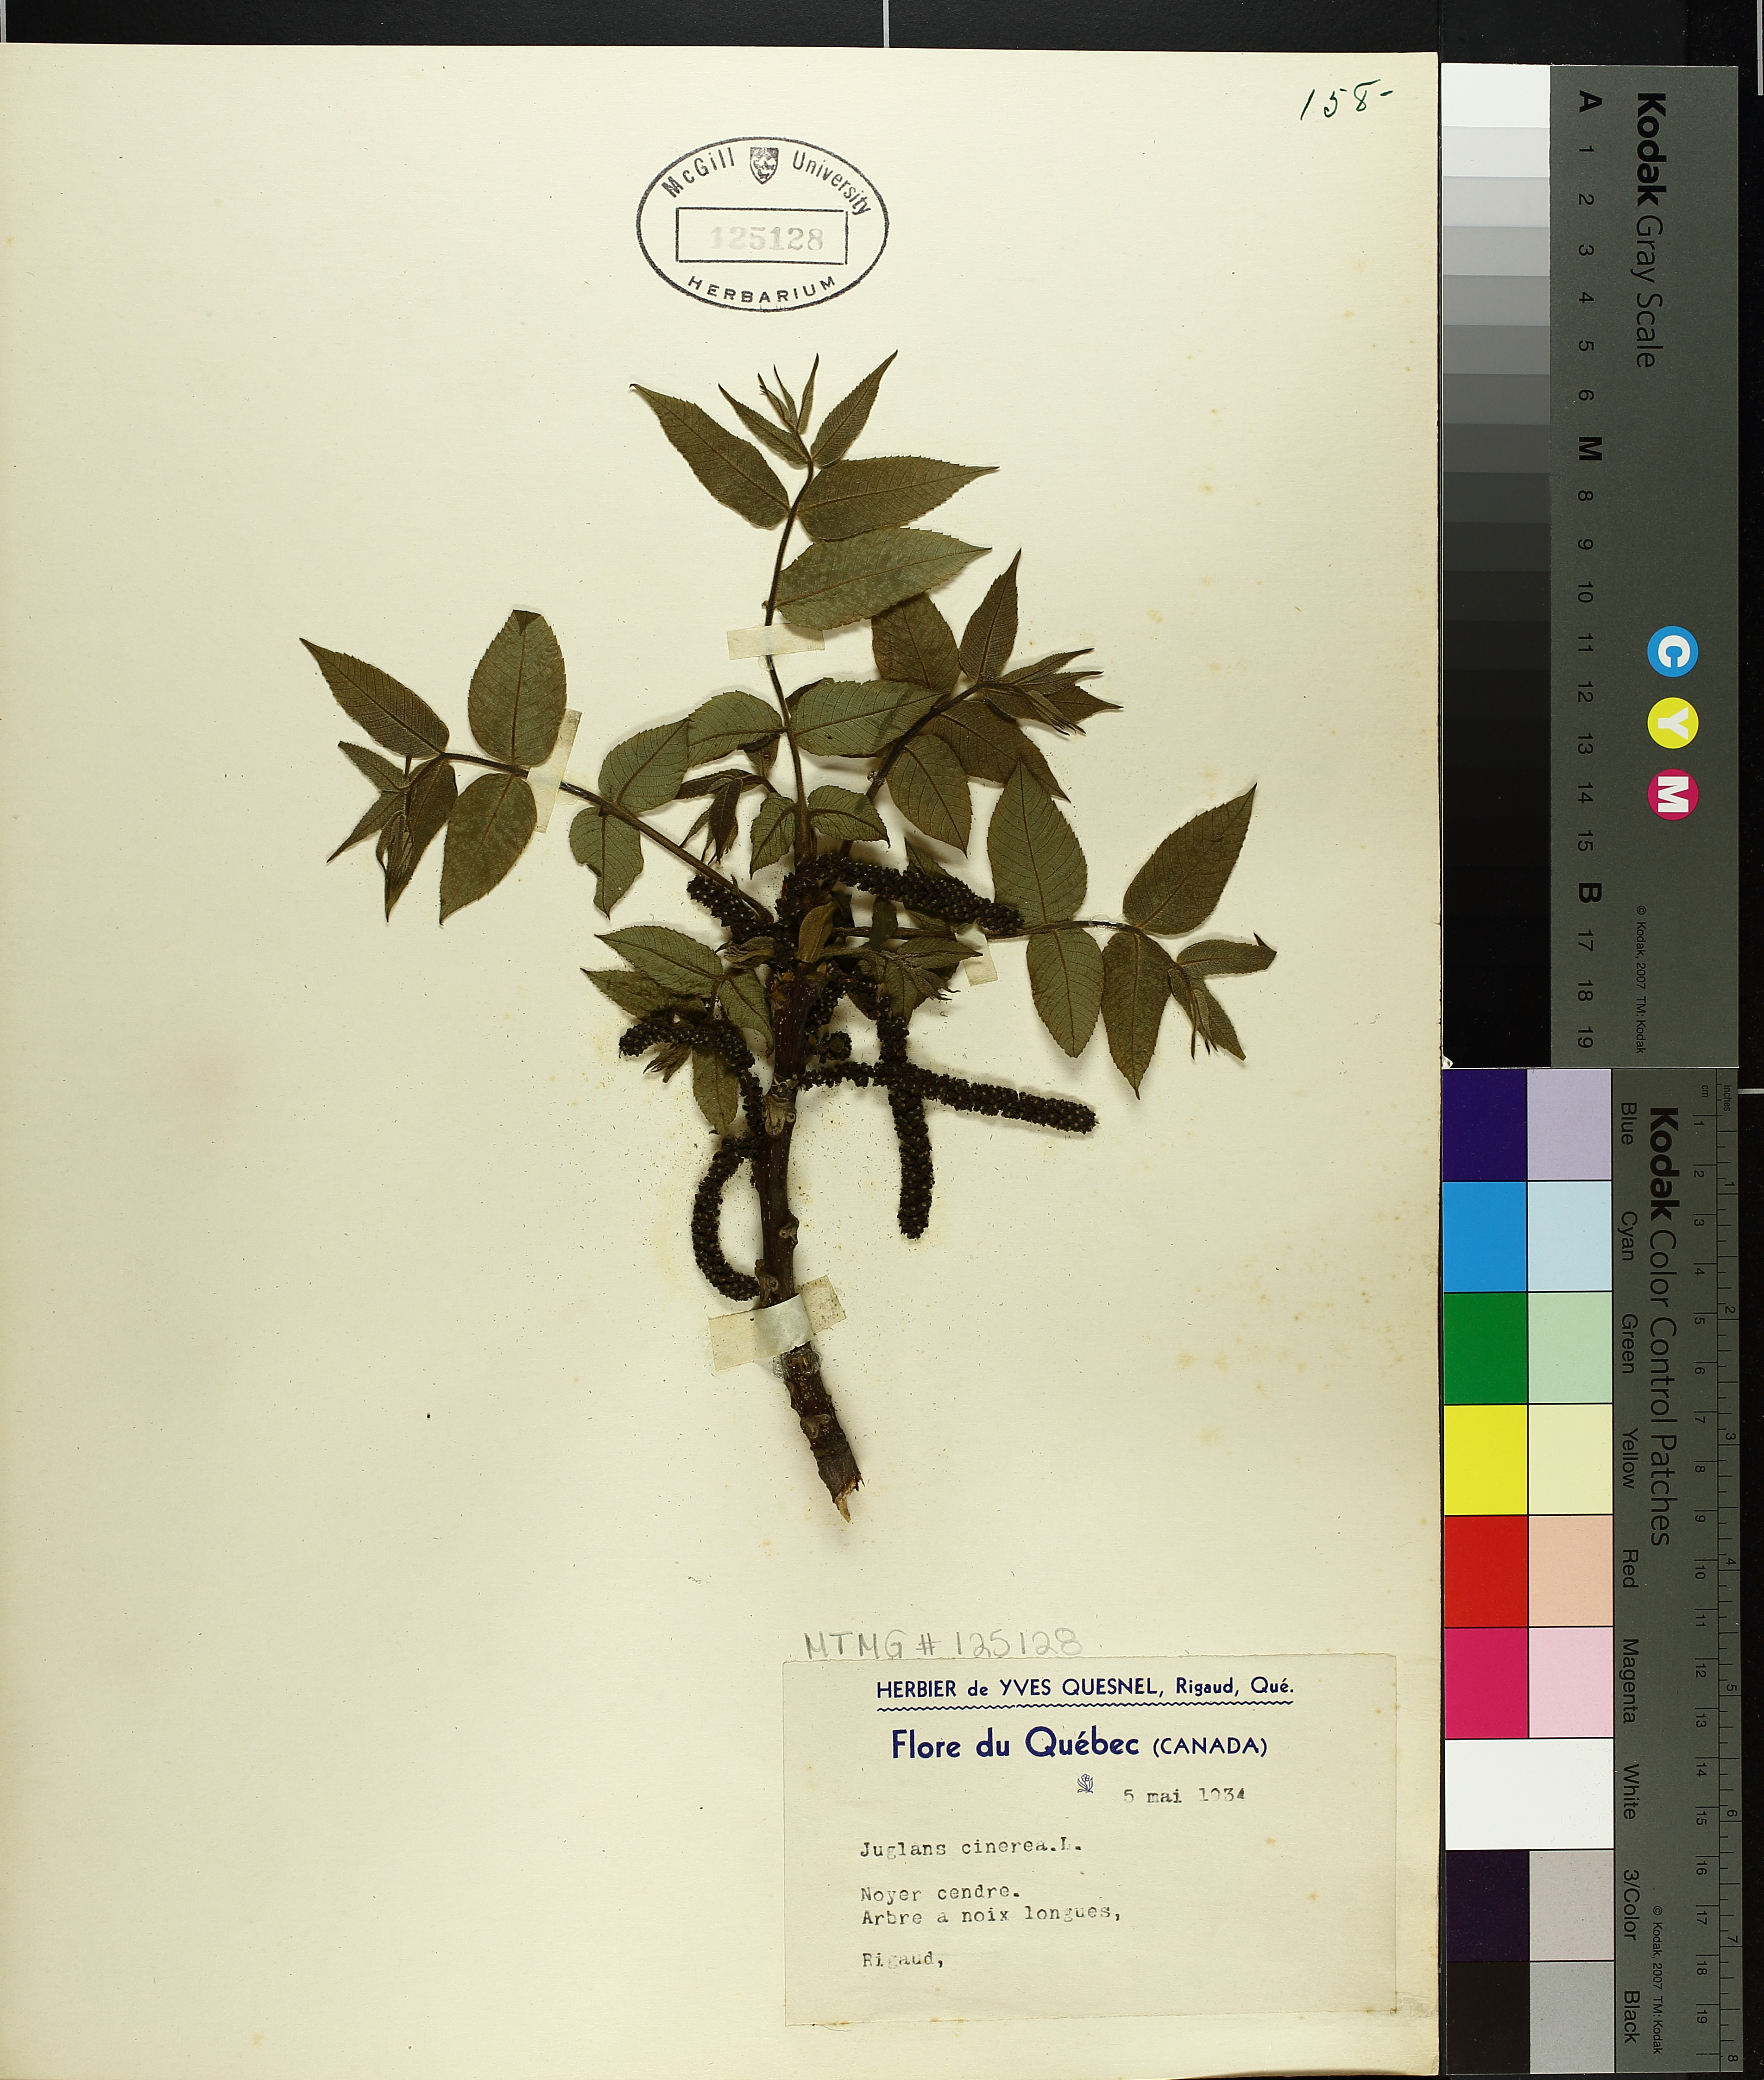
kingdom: Plantae
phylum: Tracheophyta
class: Magnoliopsida
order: Fagales
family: Juglandaceae
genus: Juglans
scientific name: Juglans cinerea
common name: Butternut
